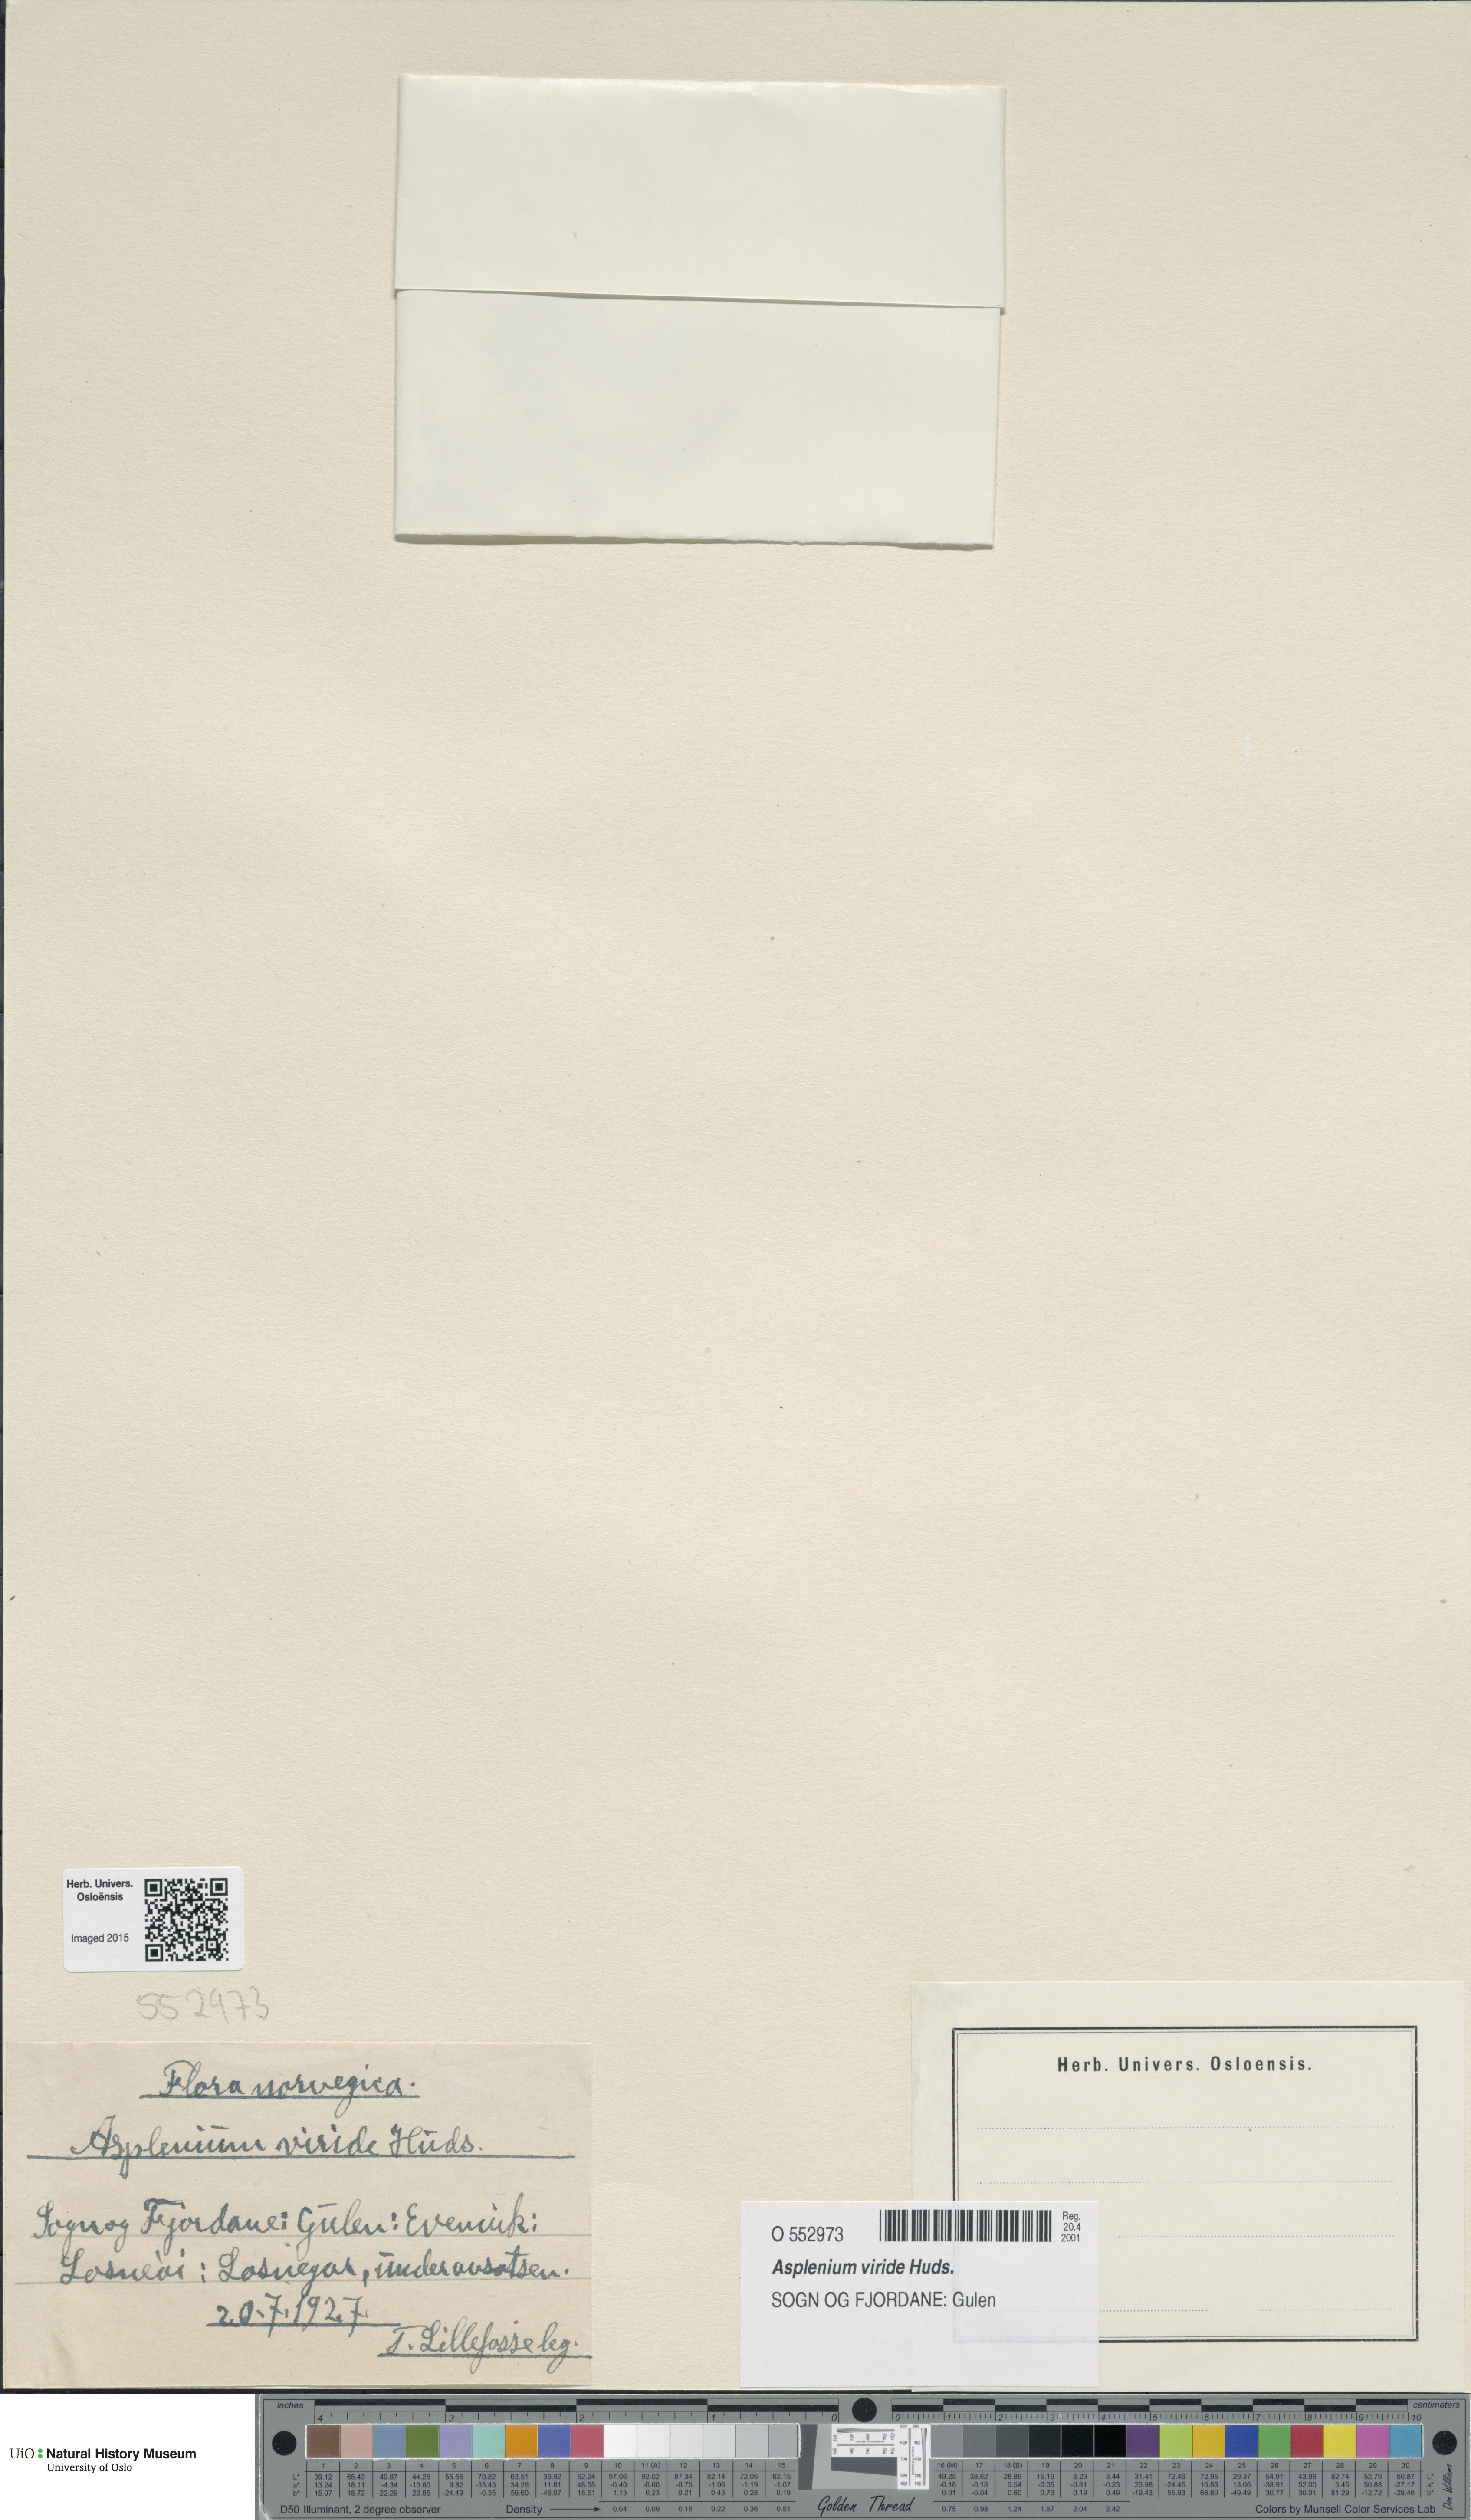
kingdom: Plantae
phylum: Tracheophyta
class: Polypodiopsida
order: Polypodiales
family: Aspleniaceae
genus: Asplenium
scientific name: Asplenium viride
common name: Green spleenwort
